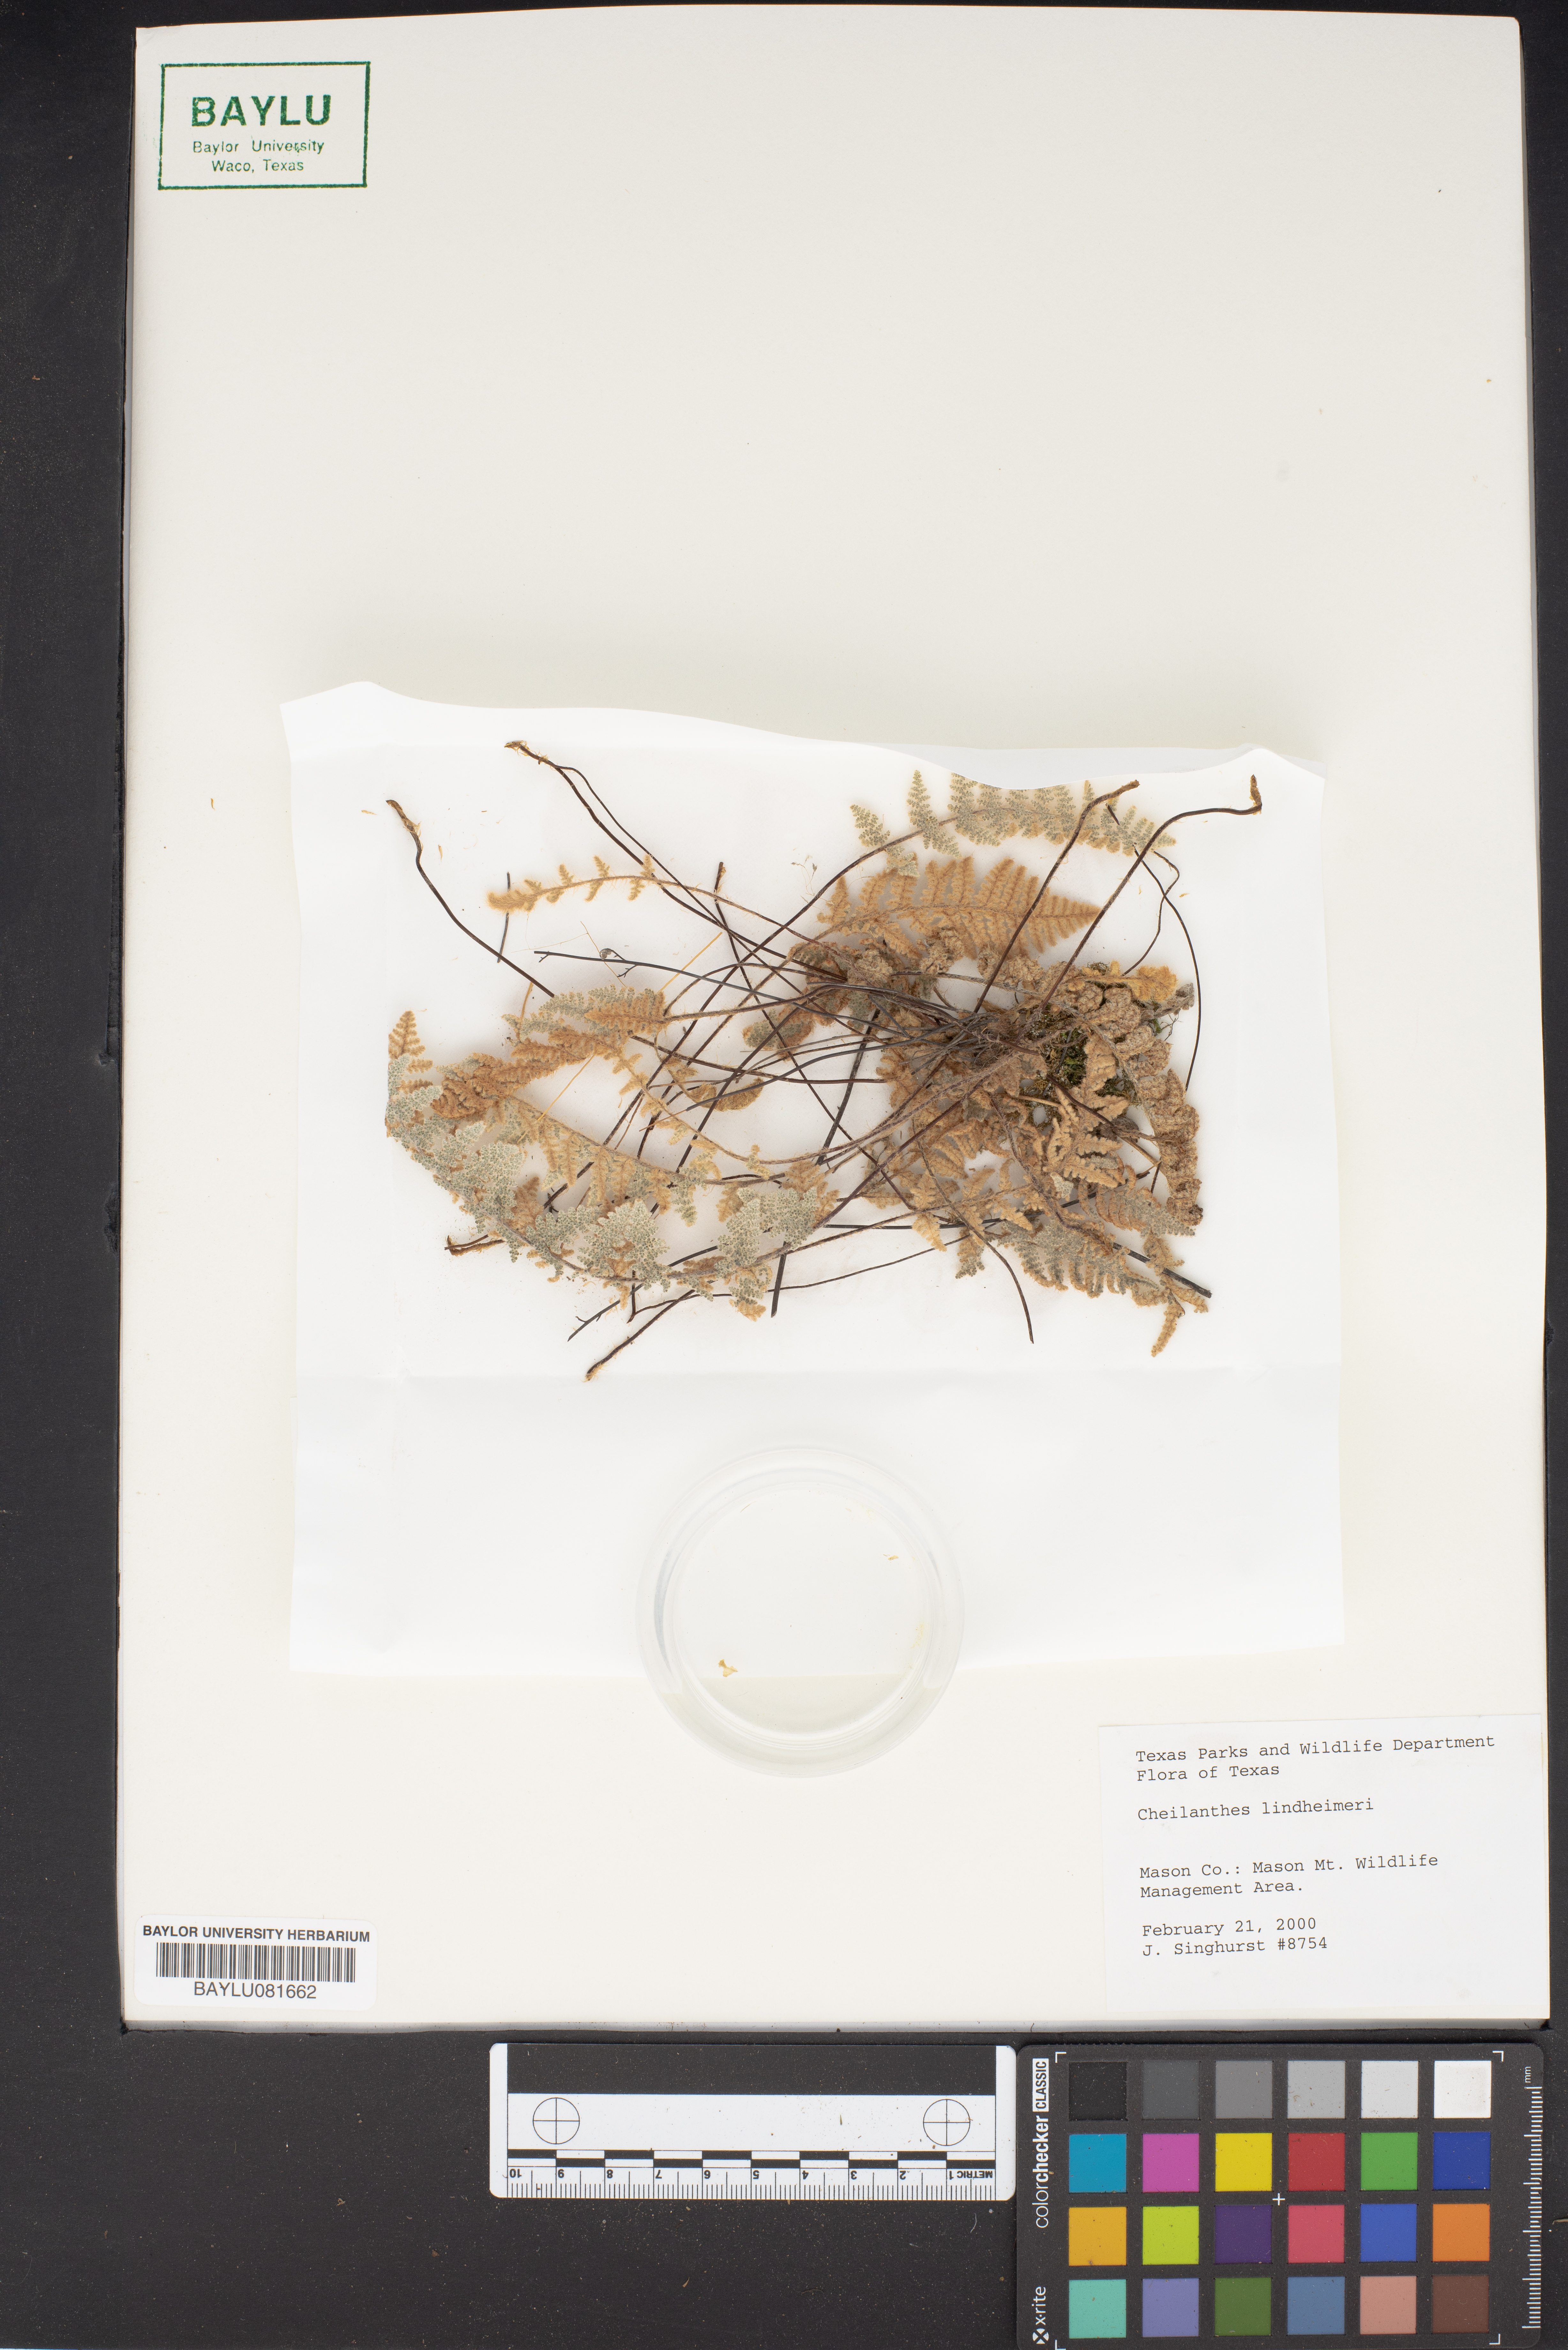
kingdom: Plantae
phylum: Tracheophyta
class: Polypodiopsida
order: Polypodiales
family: Pteridaceae
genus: Myriopteris
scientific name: Myriopteris lindheimeri
